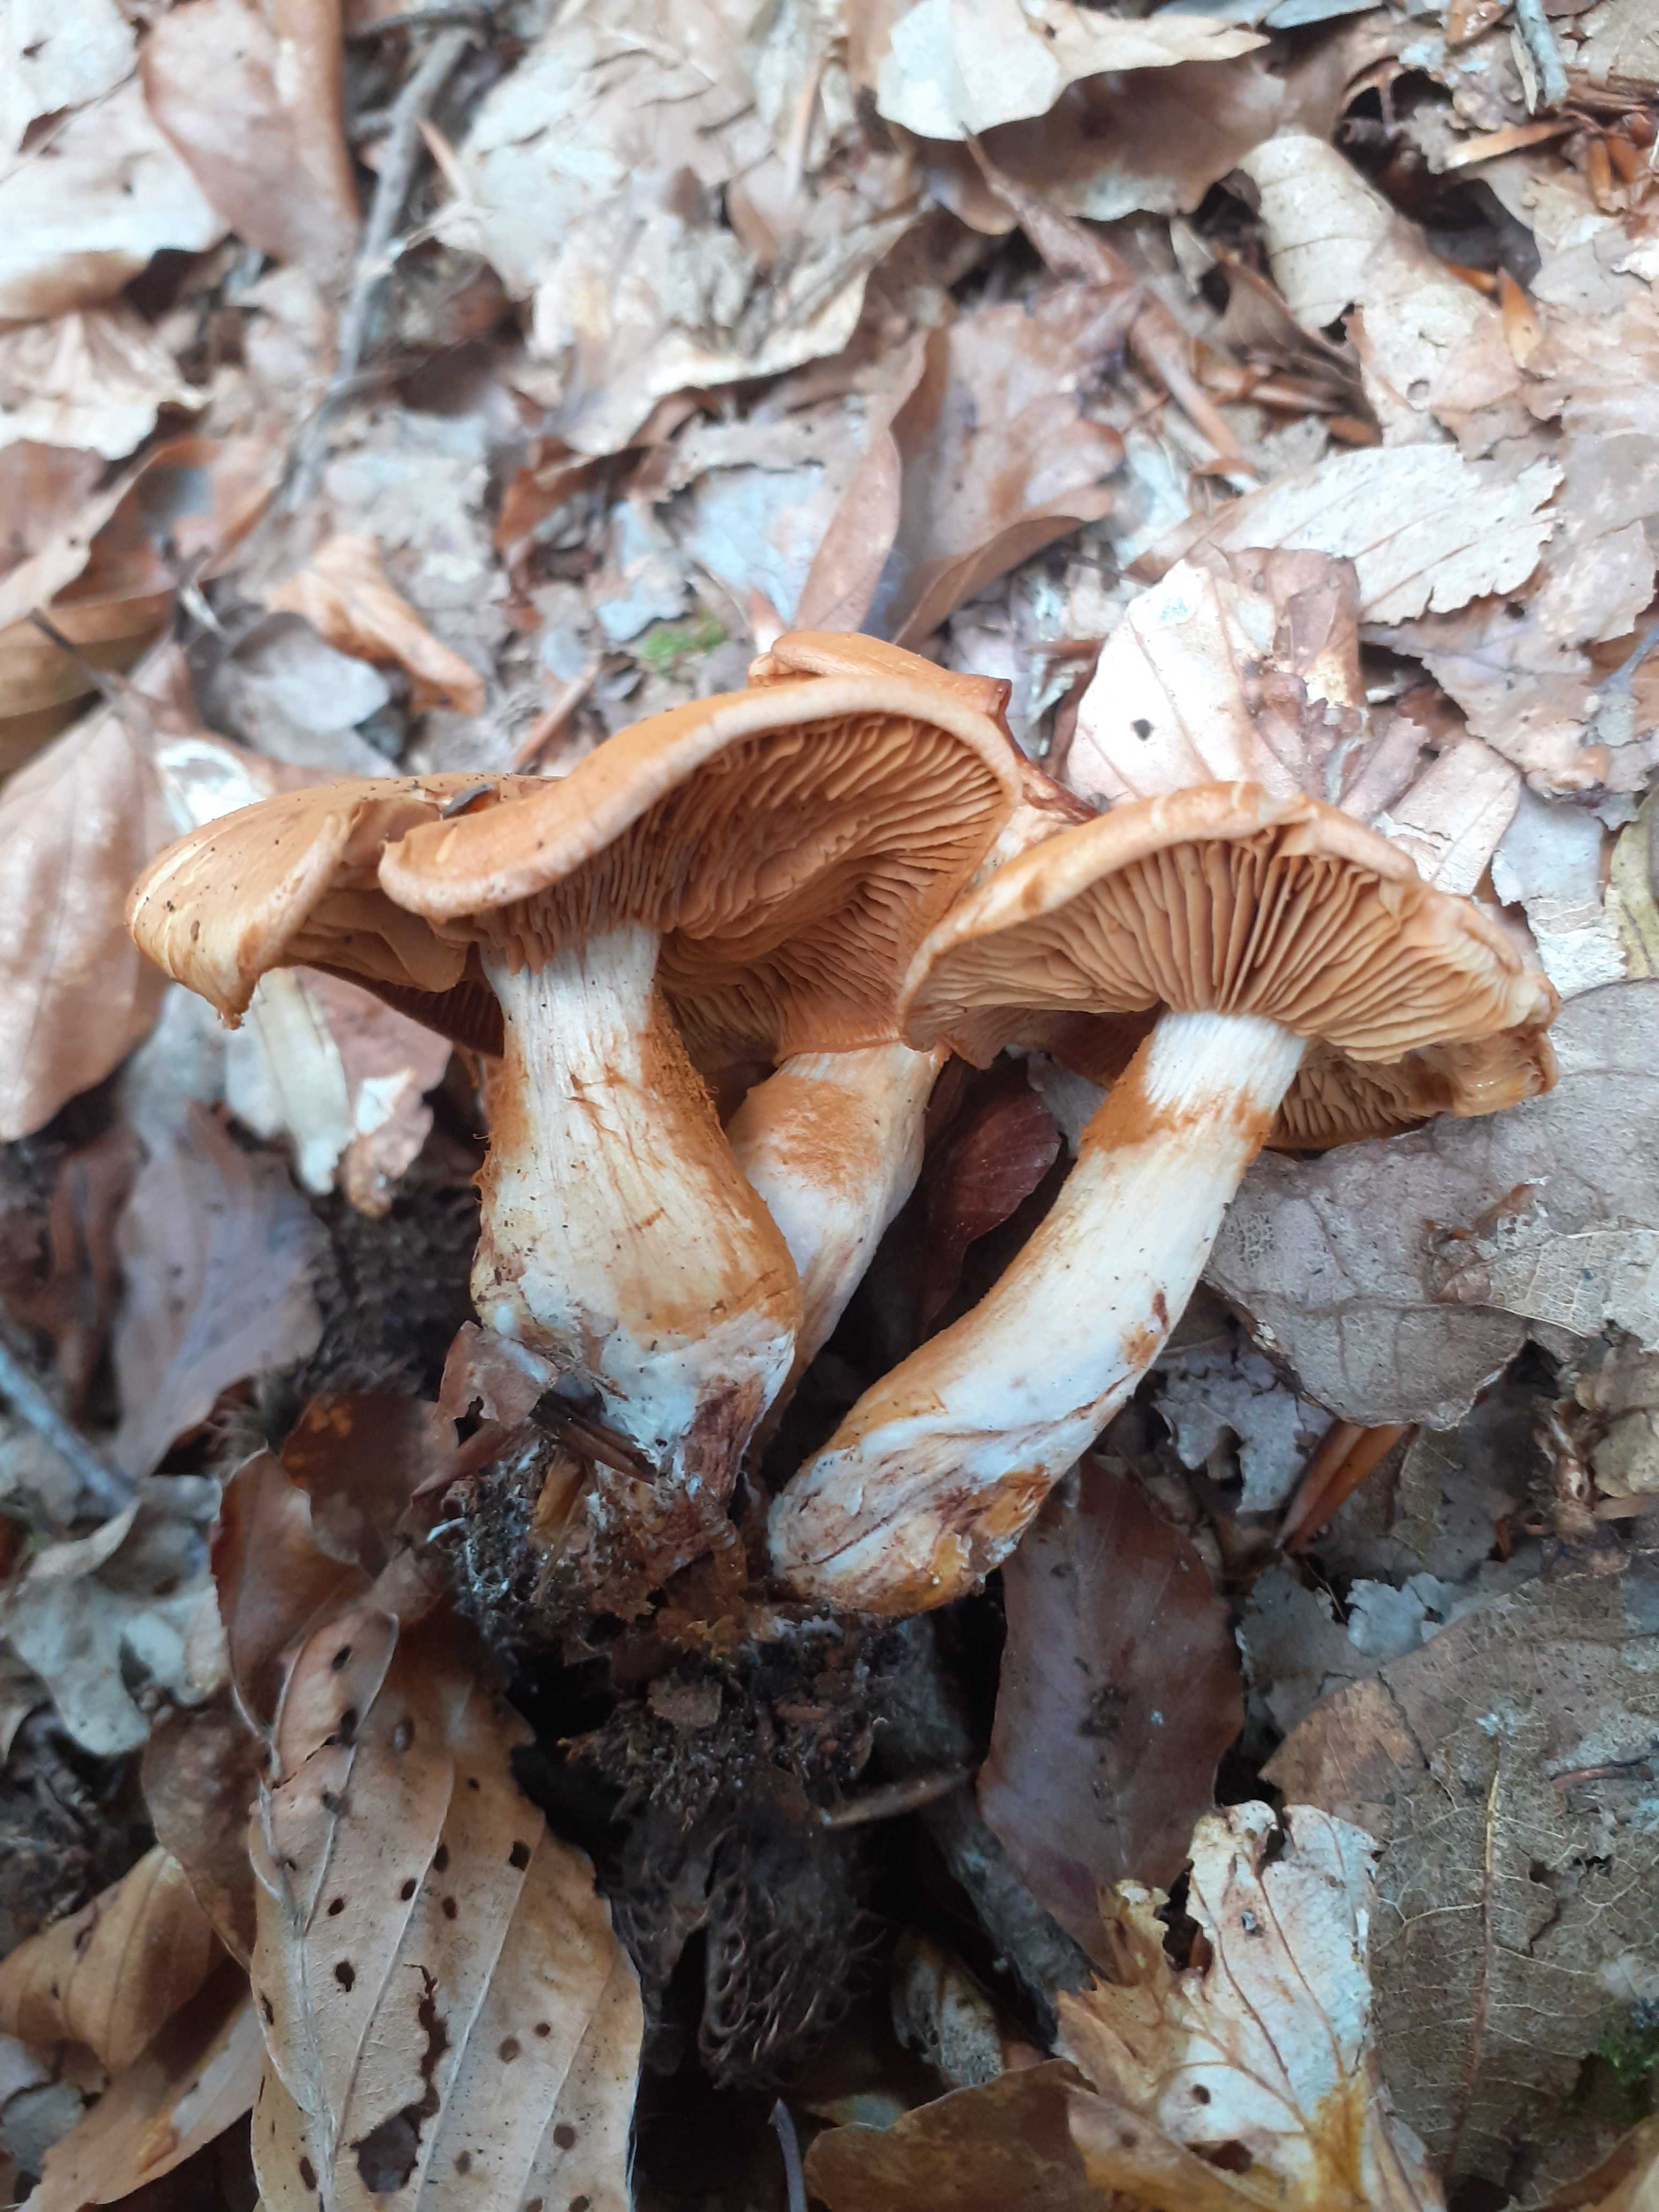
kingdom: Fungi
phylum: Basidiomycota
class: Agaricomycetes
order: Agaricales
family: Cortinariaceae
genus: Cortinarius
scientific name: Cortinarius
